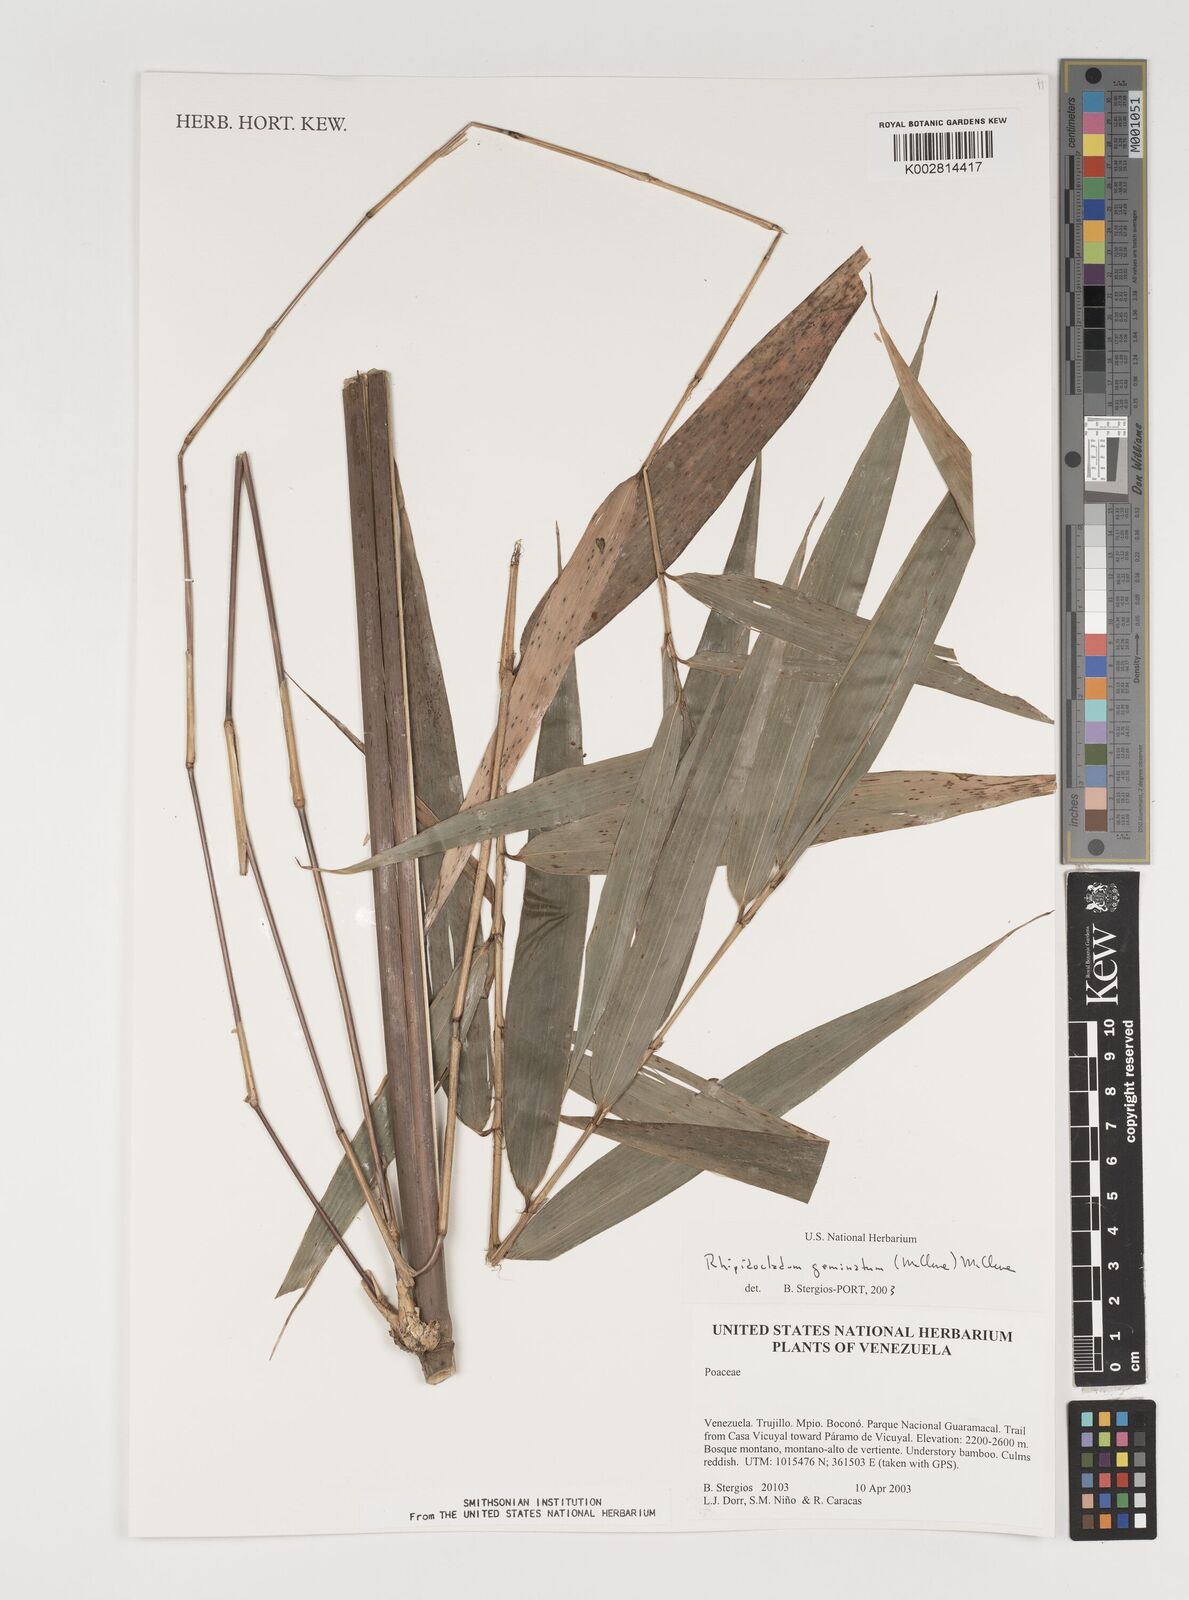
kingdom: Plantae
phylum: Tracheophyta
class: Liliopsida
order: Poales
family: Poaceae
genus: Didymogonyx
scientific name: Didymogonyx geminatum
